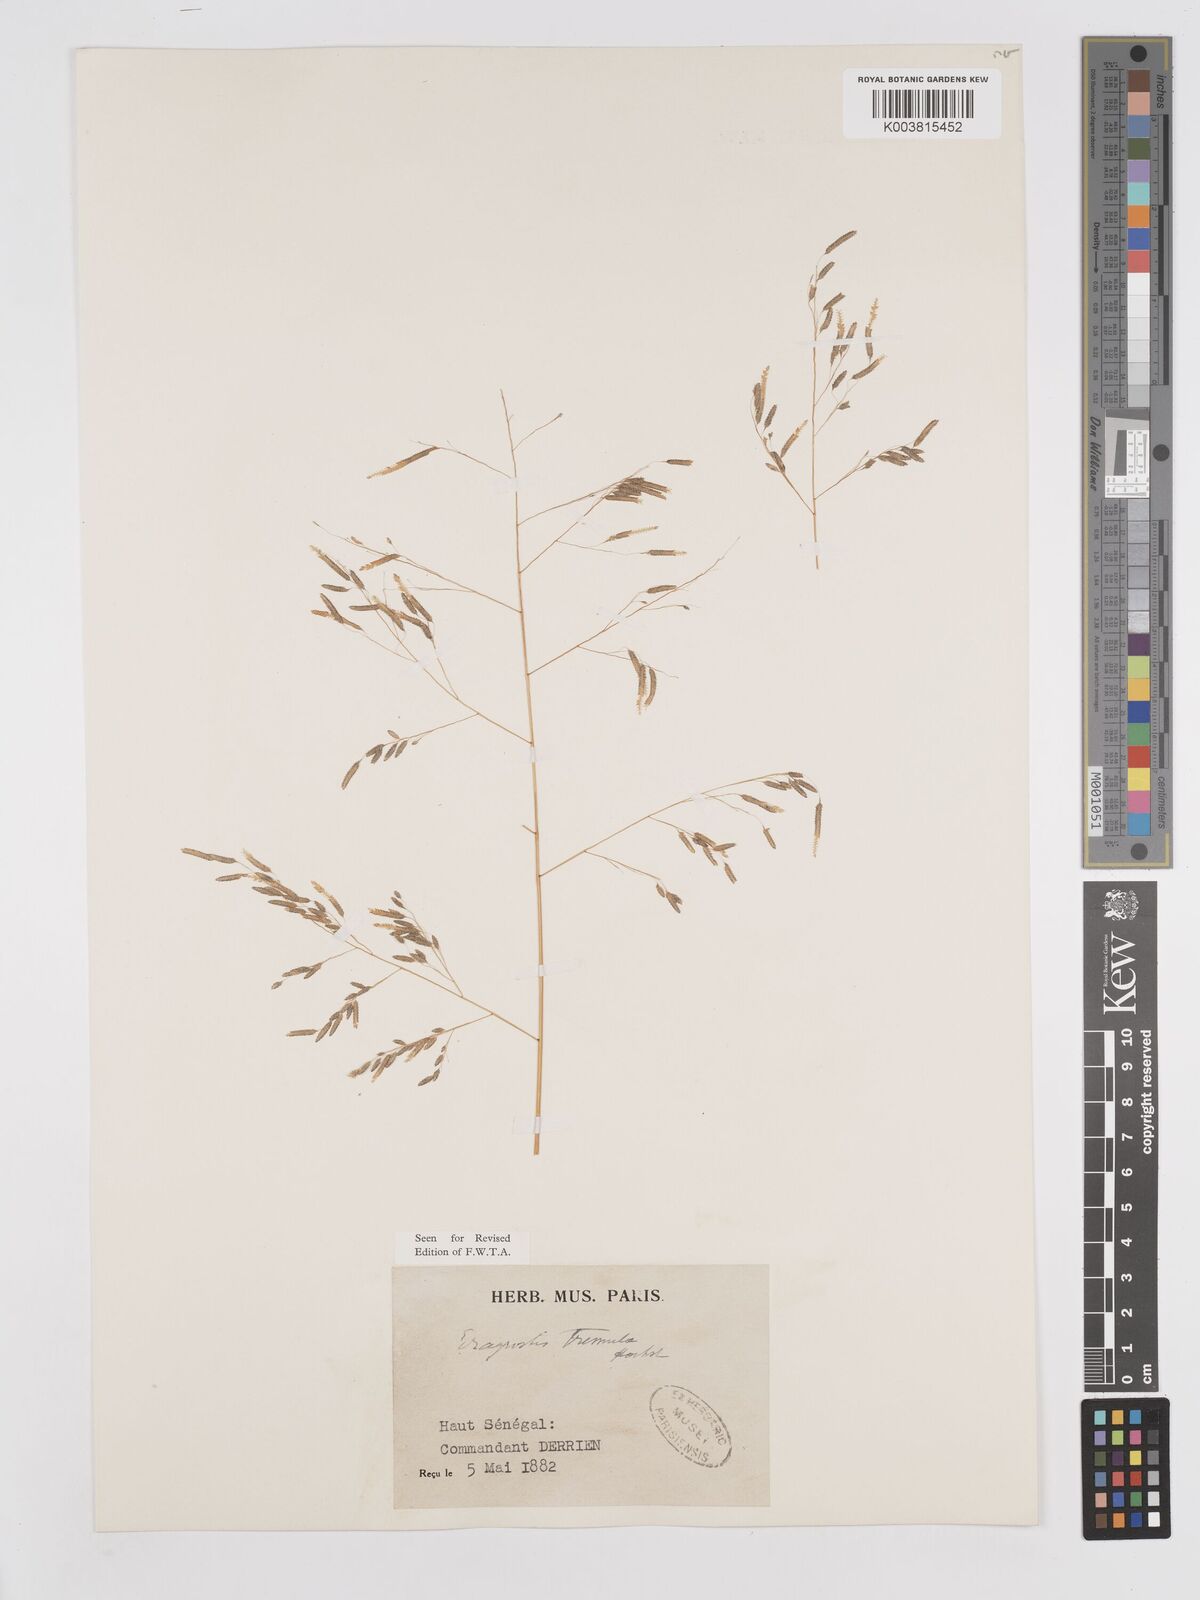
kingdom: Plantae
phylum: Tracheophyta
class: Liliopsida
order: Poales
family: Poaceae
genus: Eragrostis
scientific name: Eragrostis tremula
